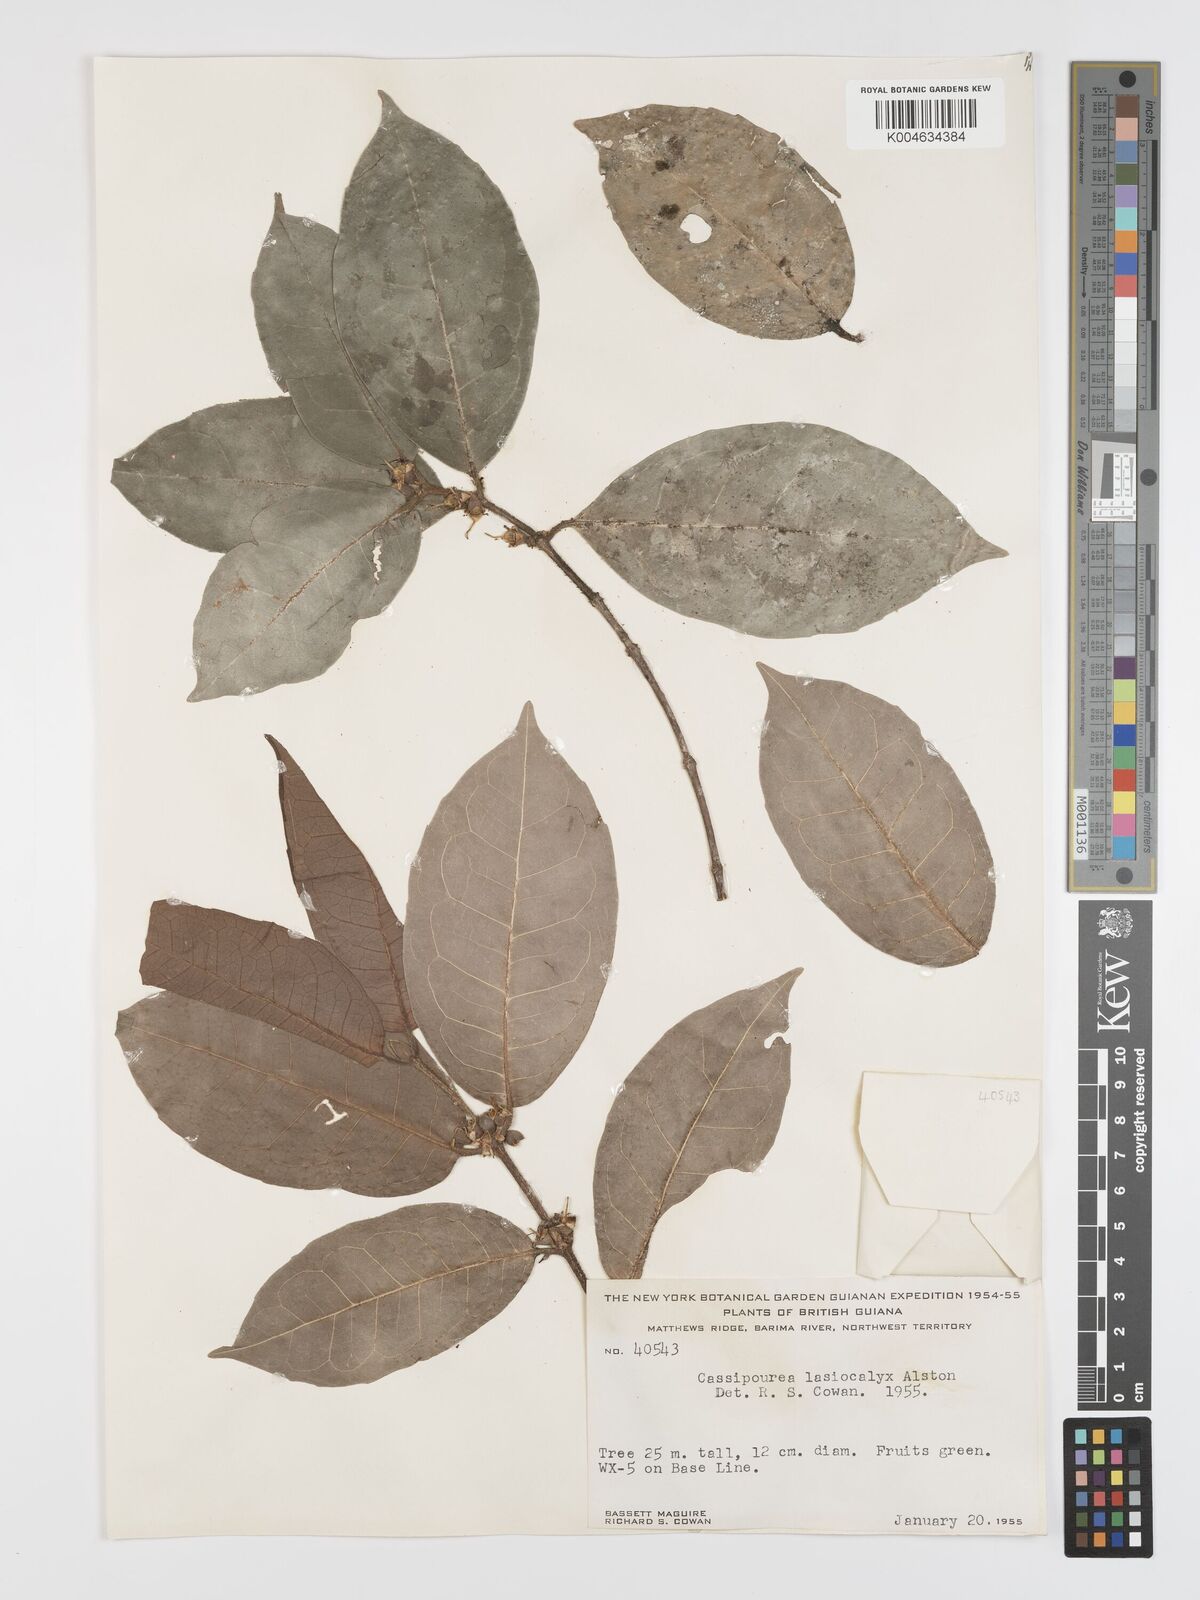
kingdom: Plantae
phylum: Tracheophyta
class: Magnoliopsida
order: Malpighiales
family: Rhizophoraceae
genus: Cassipourea
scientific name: Cassipourea lasiocalyx
